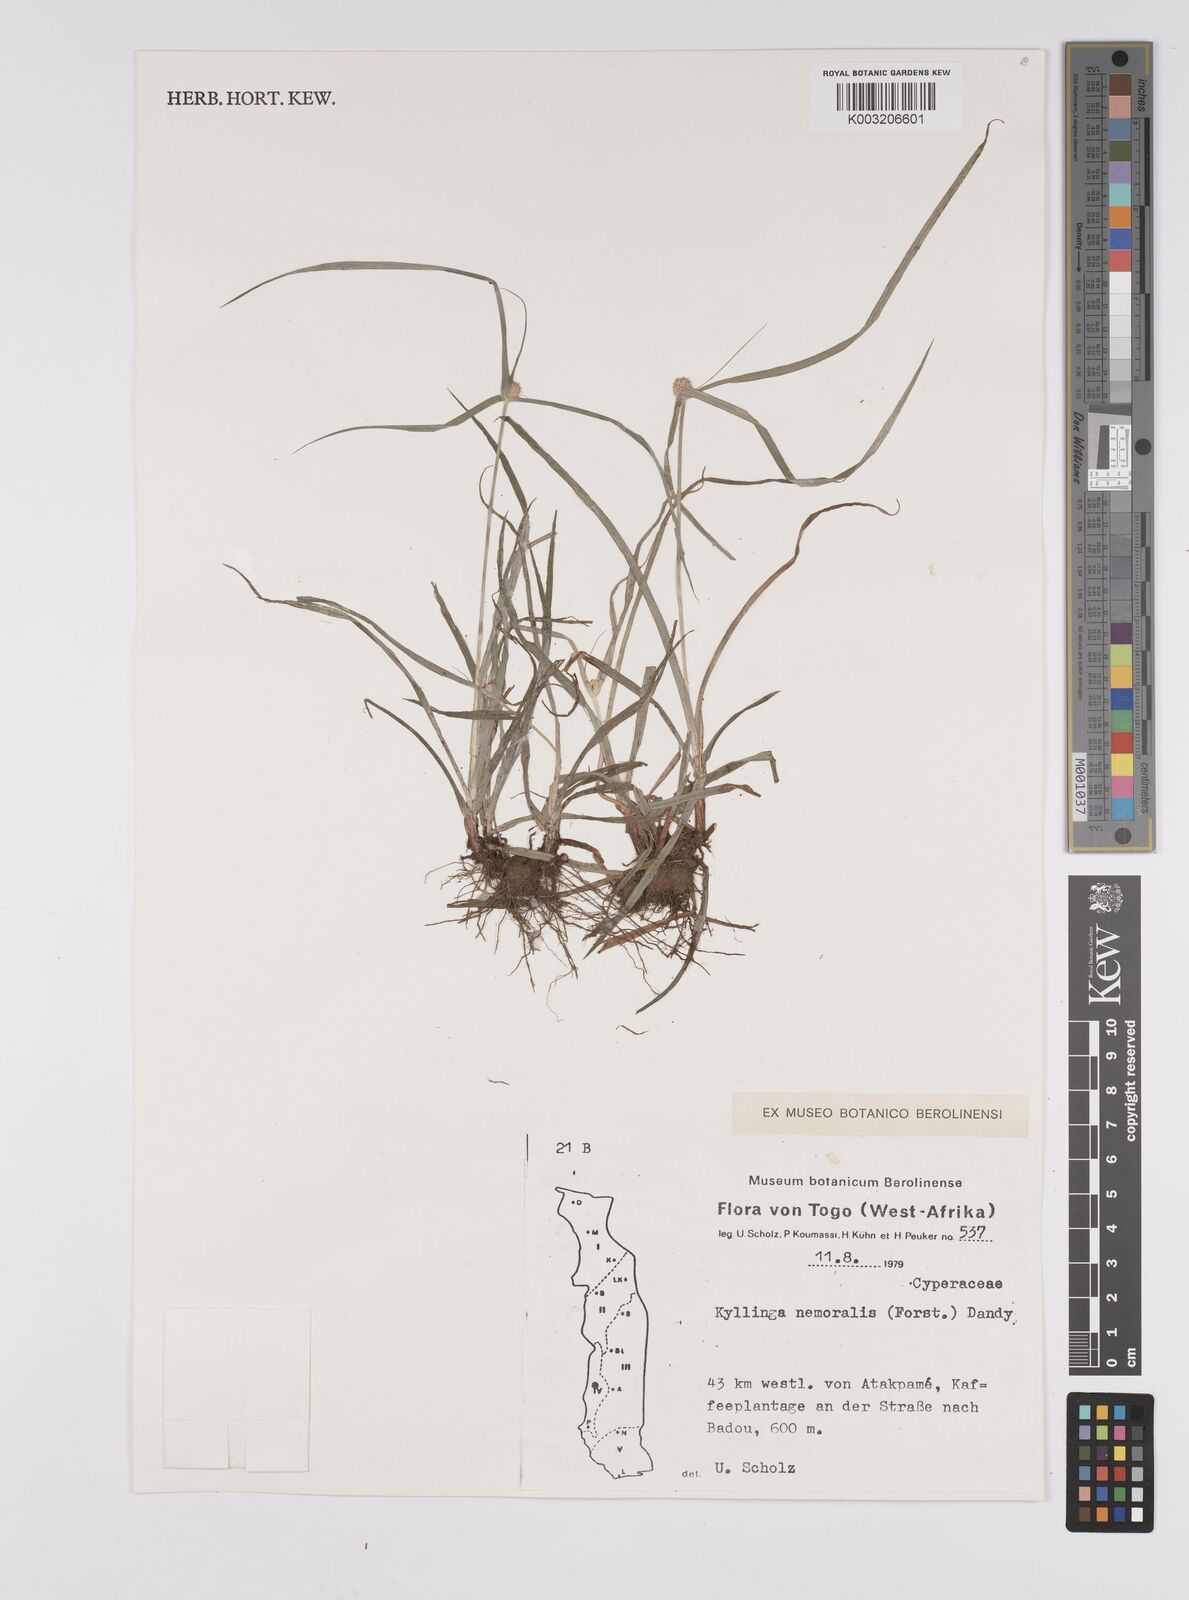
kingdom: Plantae
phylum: Tracheophyta
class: Liliopsida
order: Poales
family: Cyperaceae
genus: Cyperus
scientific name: Cyperus nemoralis
